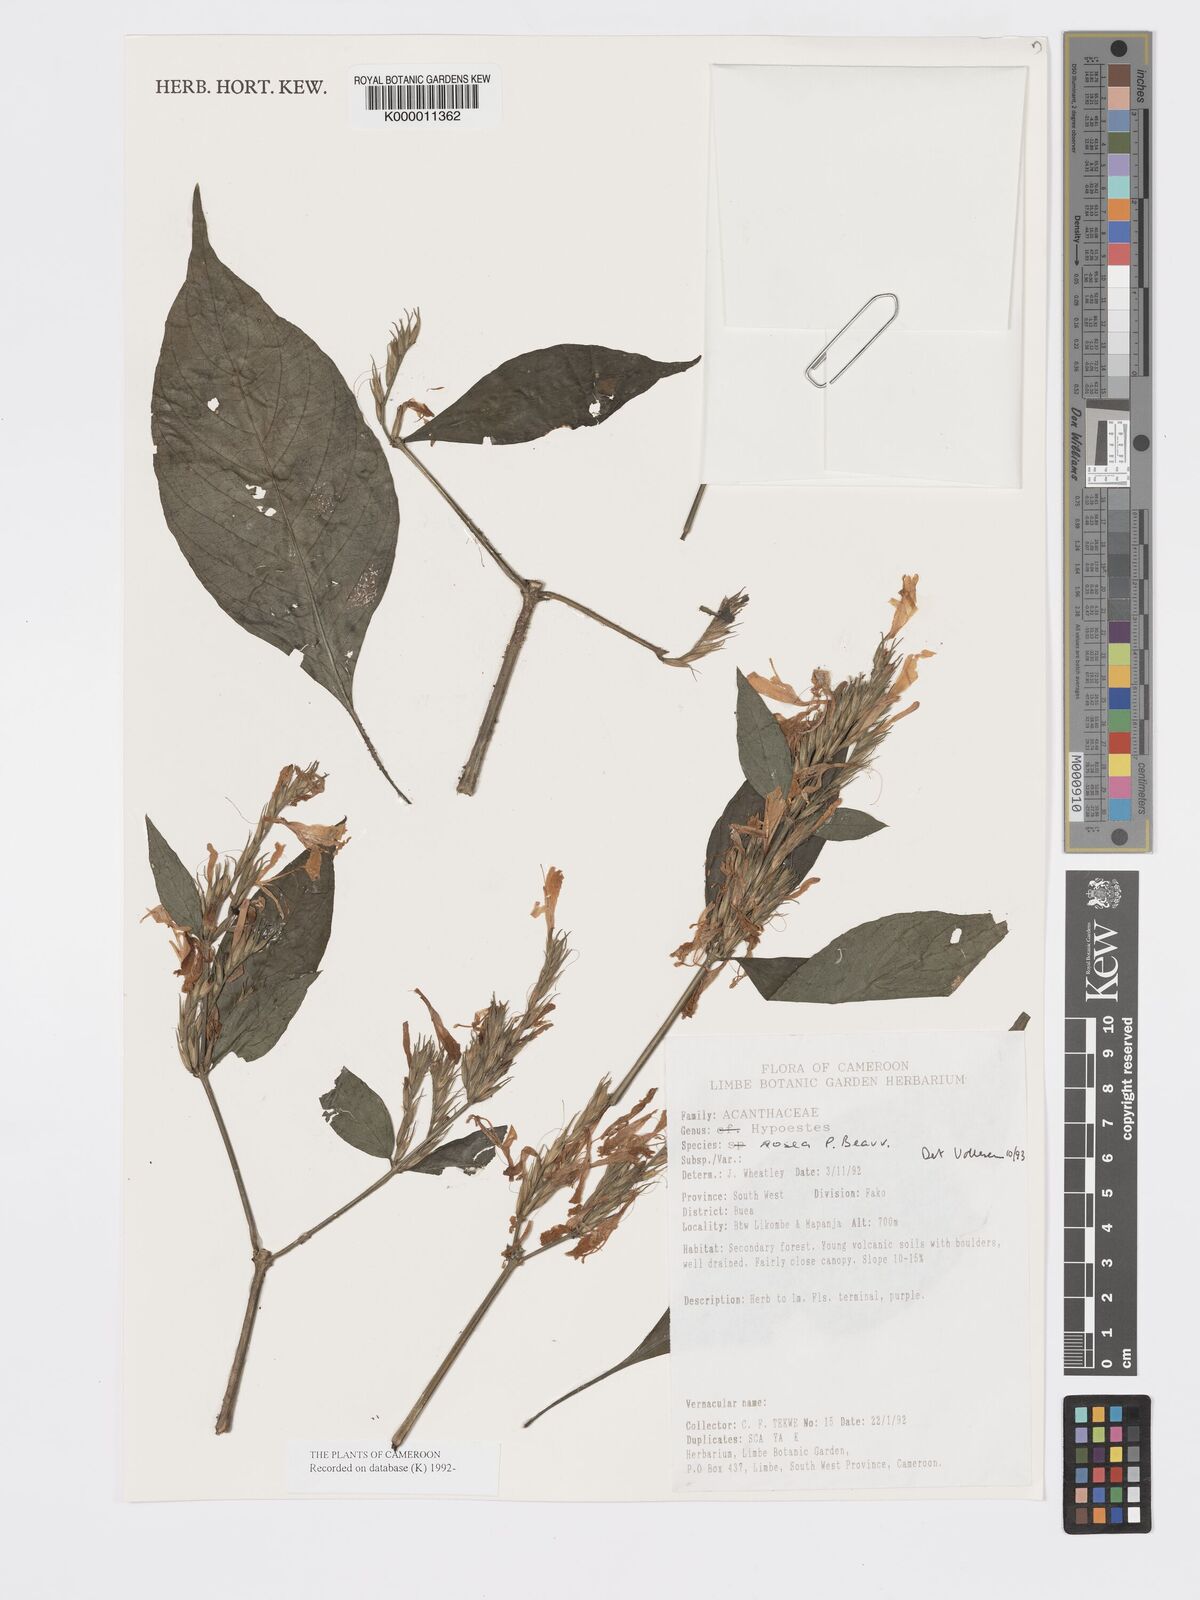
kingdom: Plantae
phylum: Tracheophyta
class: Magnoliopsida
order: Lamiales
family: Acanthaceae
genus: Hypoestes
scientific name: Hypoestes rosea
